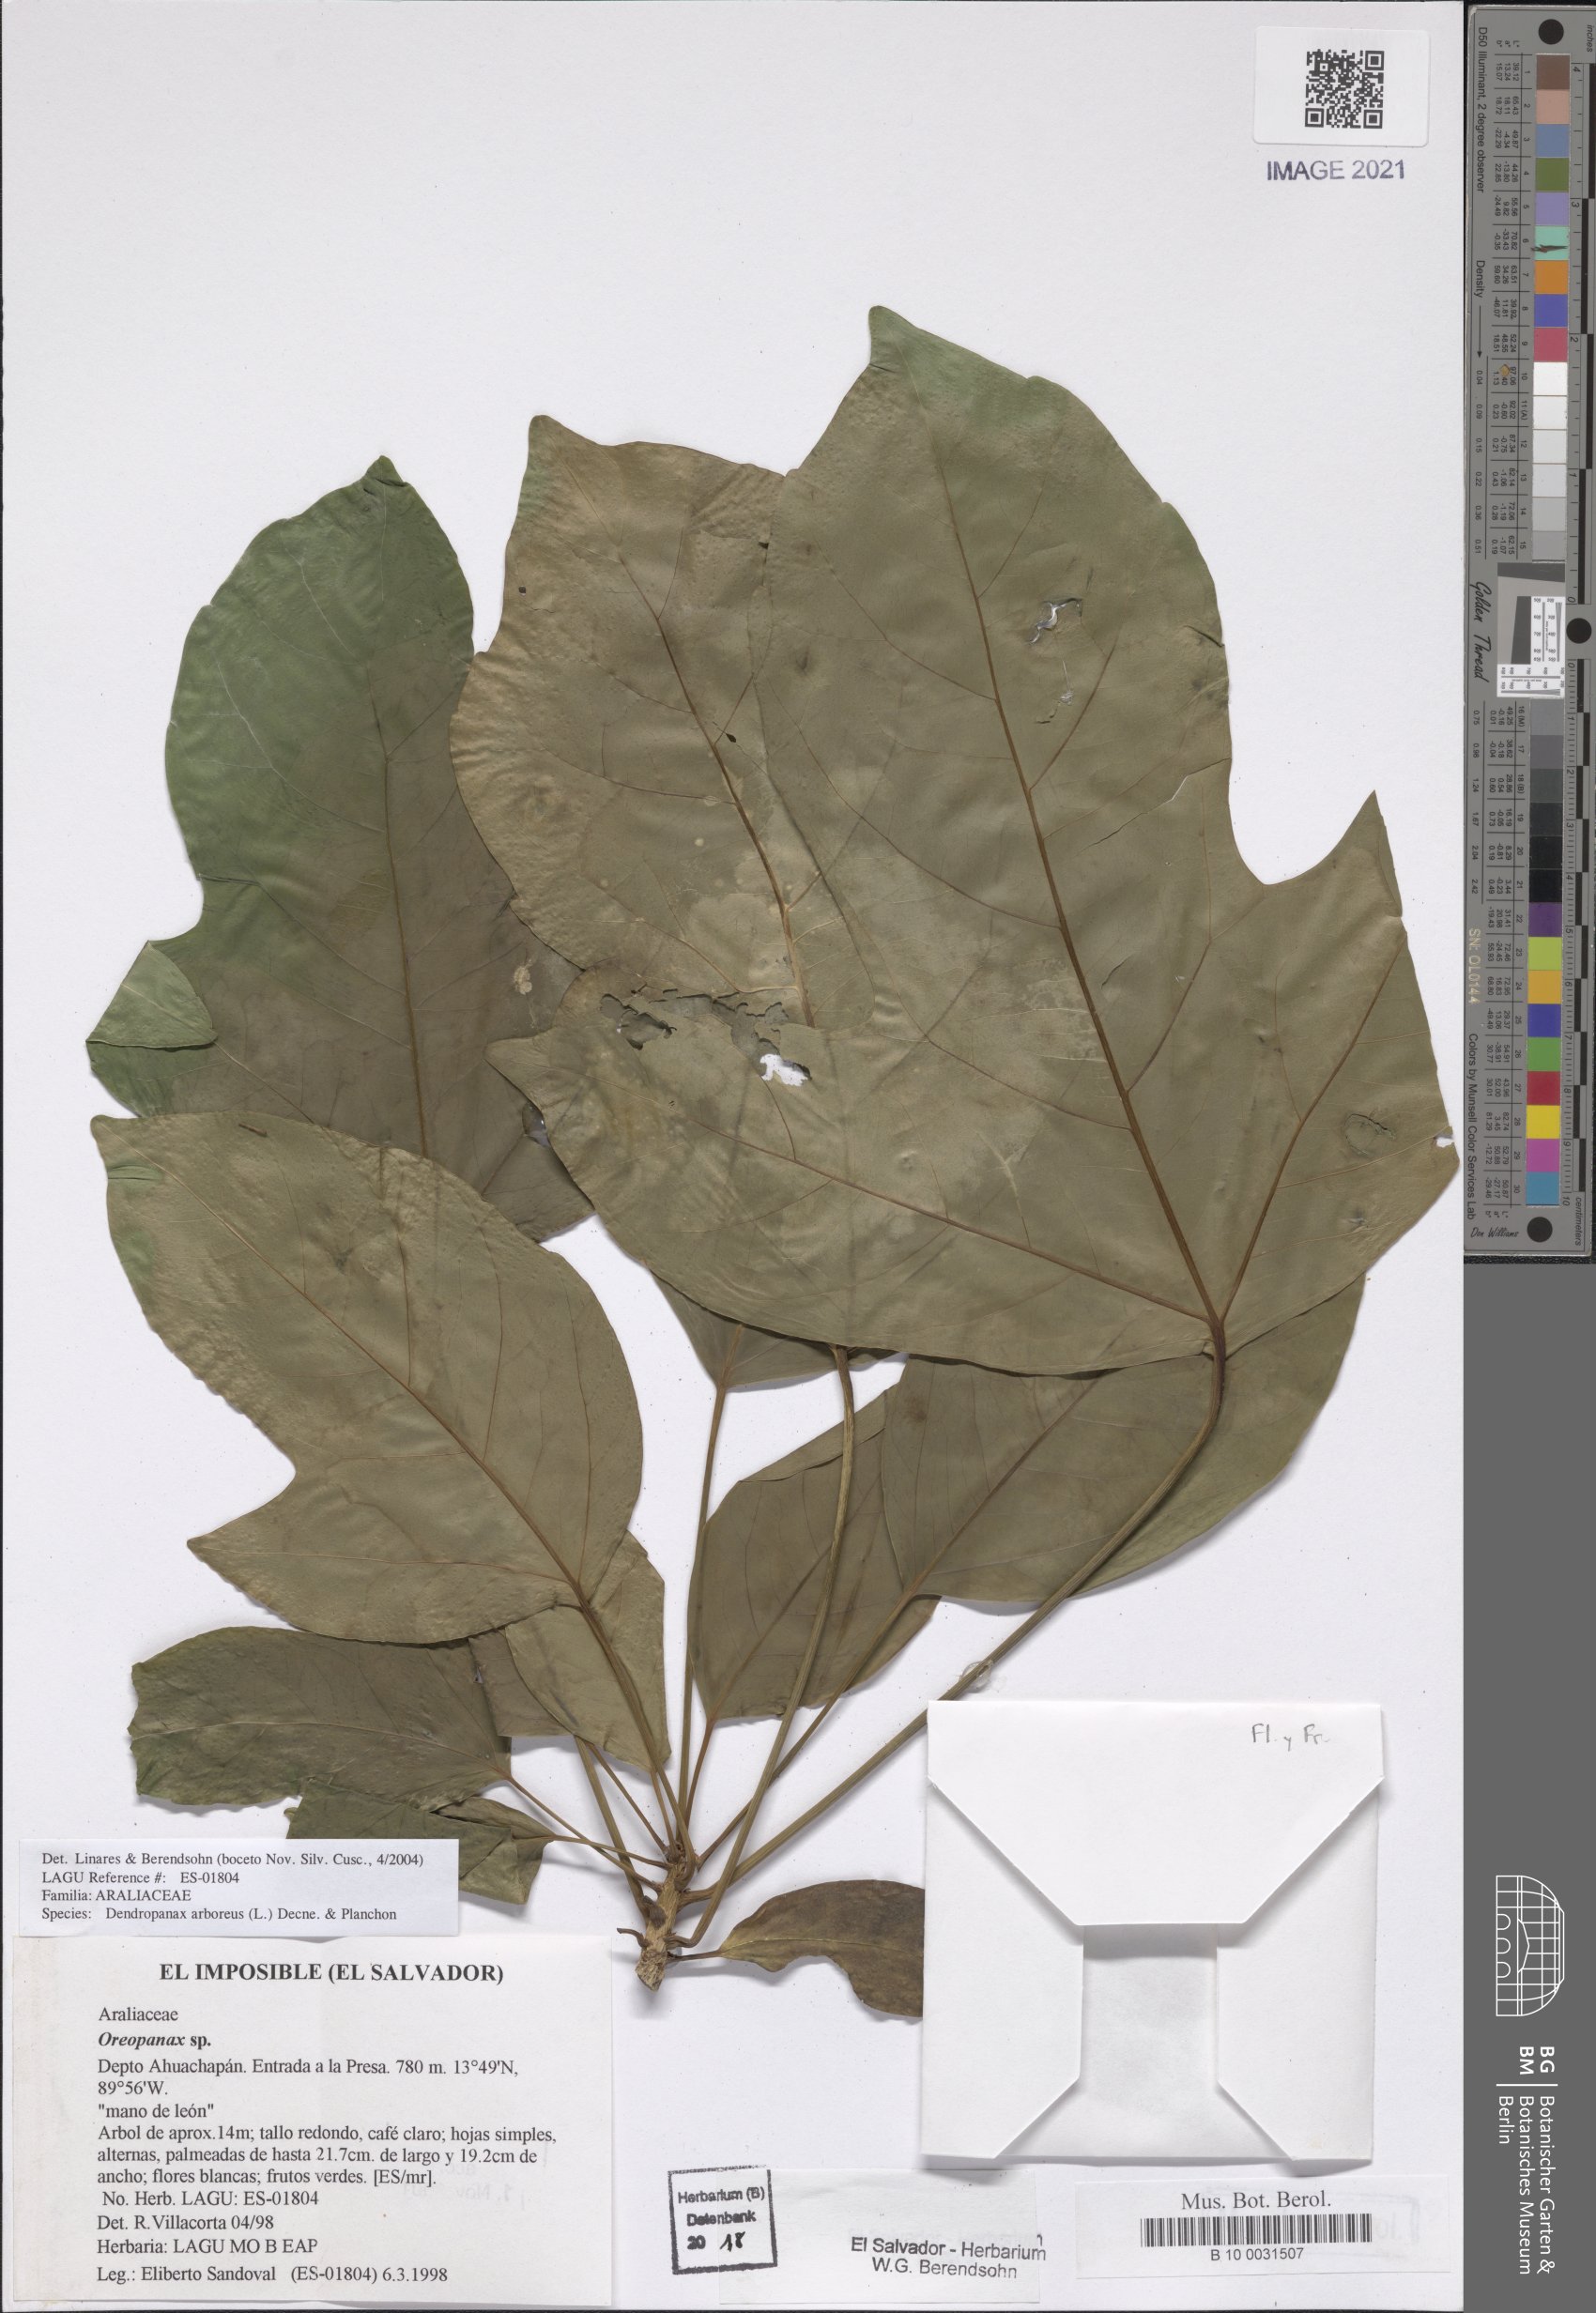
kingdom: Plantae
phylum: Tracheophyta
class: Magnoliopsida
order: Apiales
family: Araliaceae
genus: Dendropanax
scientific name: Dendropanax arboreus
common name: Potato-wood
